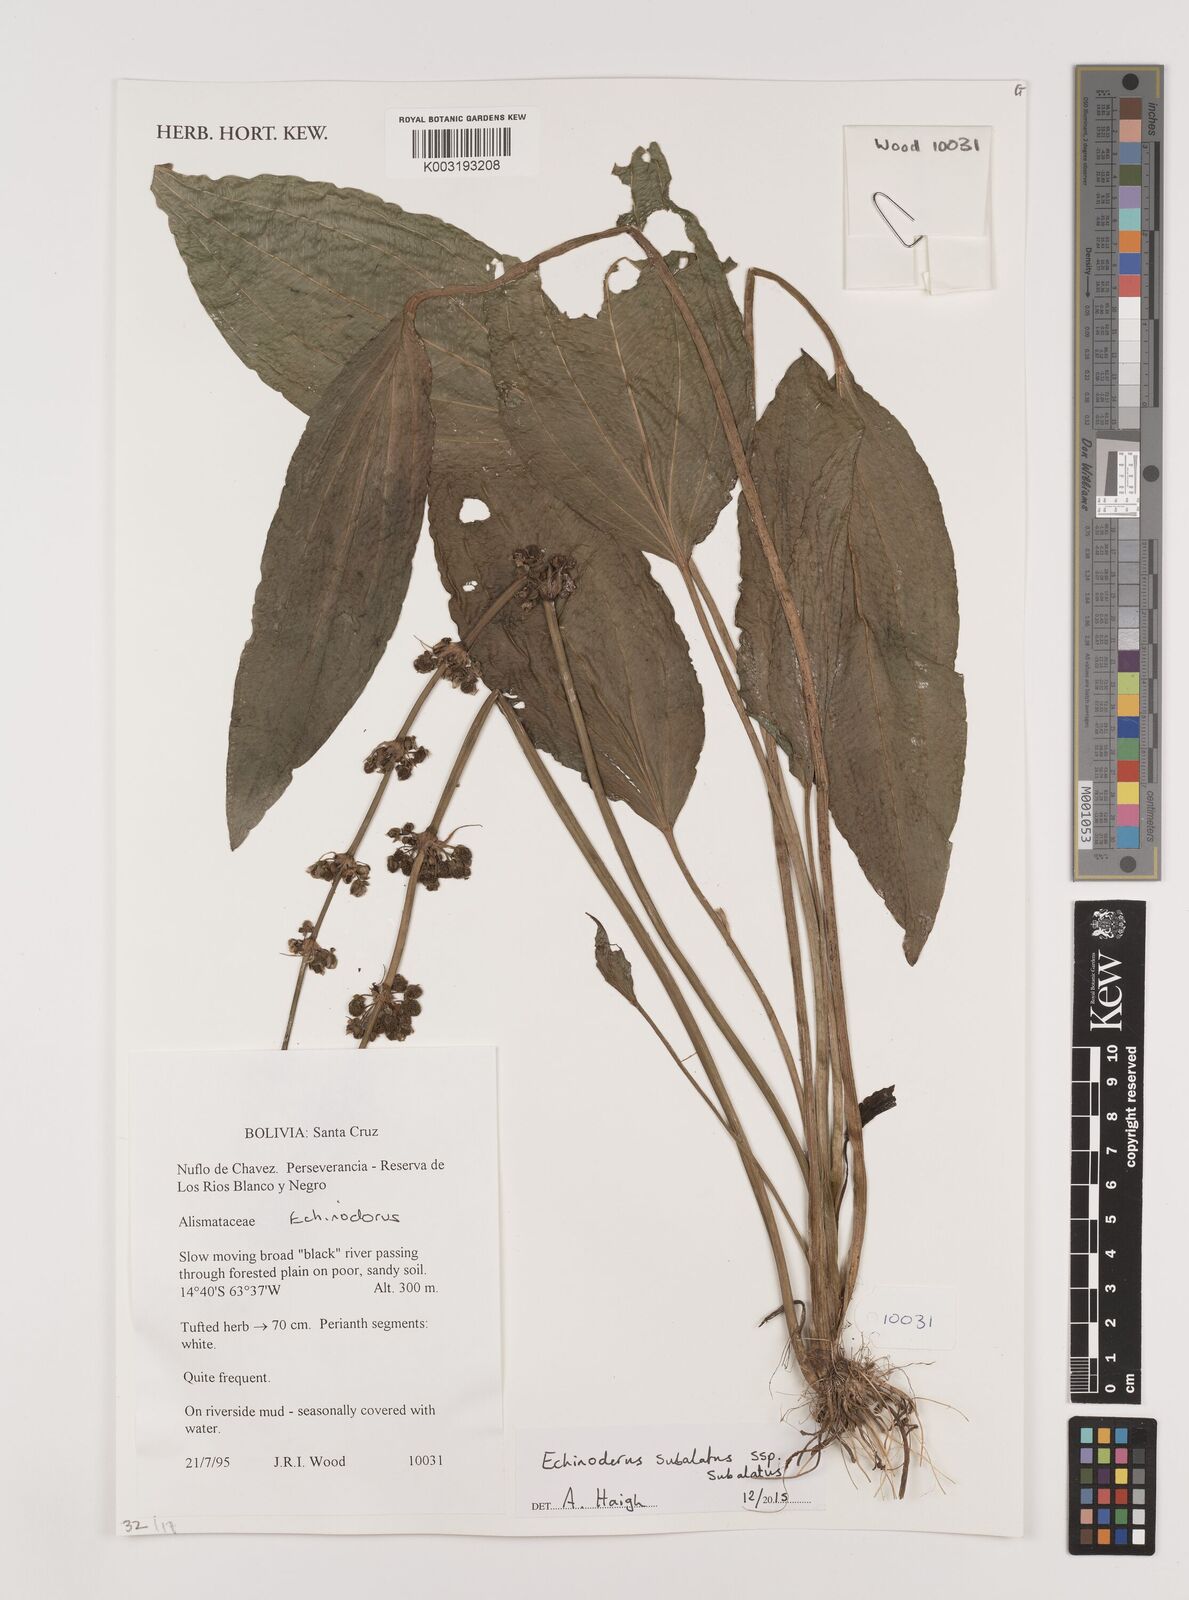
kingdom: Plantae
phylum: Tracheophyta
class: Liliopsida
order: Alismatales
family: Alismataceae
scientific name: Alismataceae
